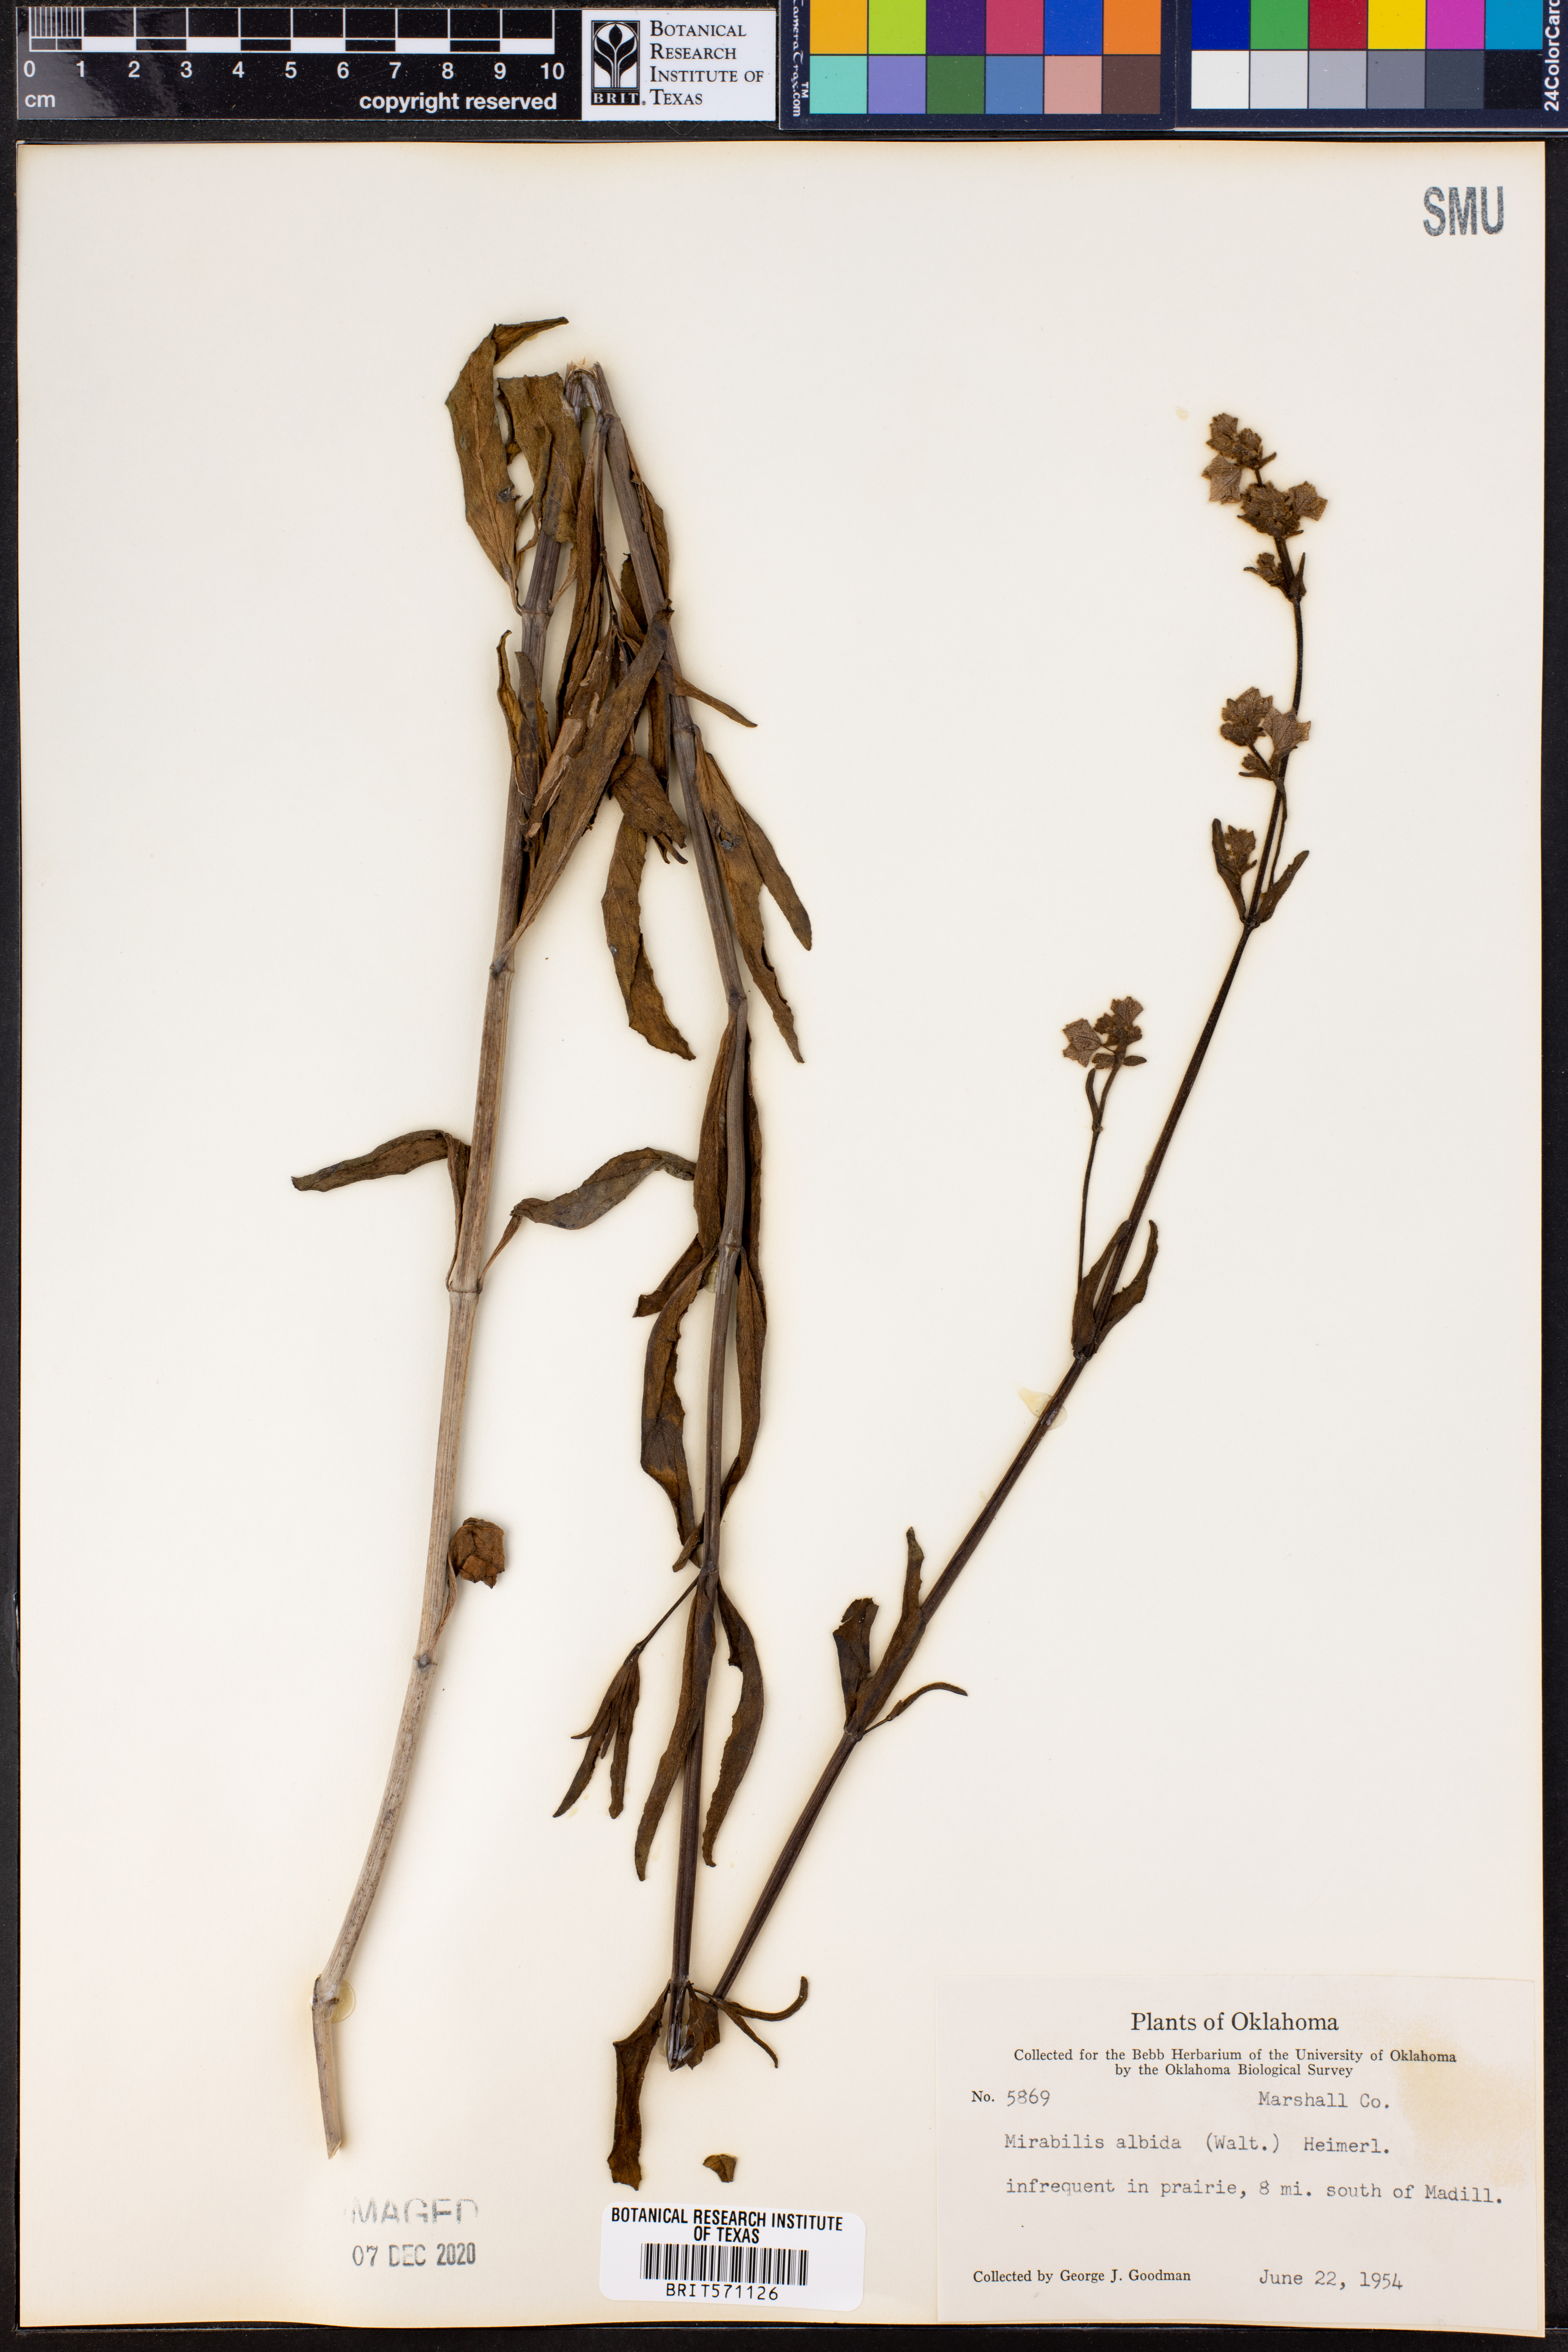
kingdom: Plantae
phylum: Tracheophyta
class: Magnoliopsida
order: Caryophyllales
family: Nyctaginaceae
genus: Mirabilis
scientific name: Mirabilis albida
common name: Hairy four-o'clock
